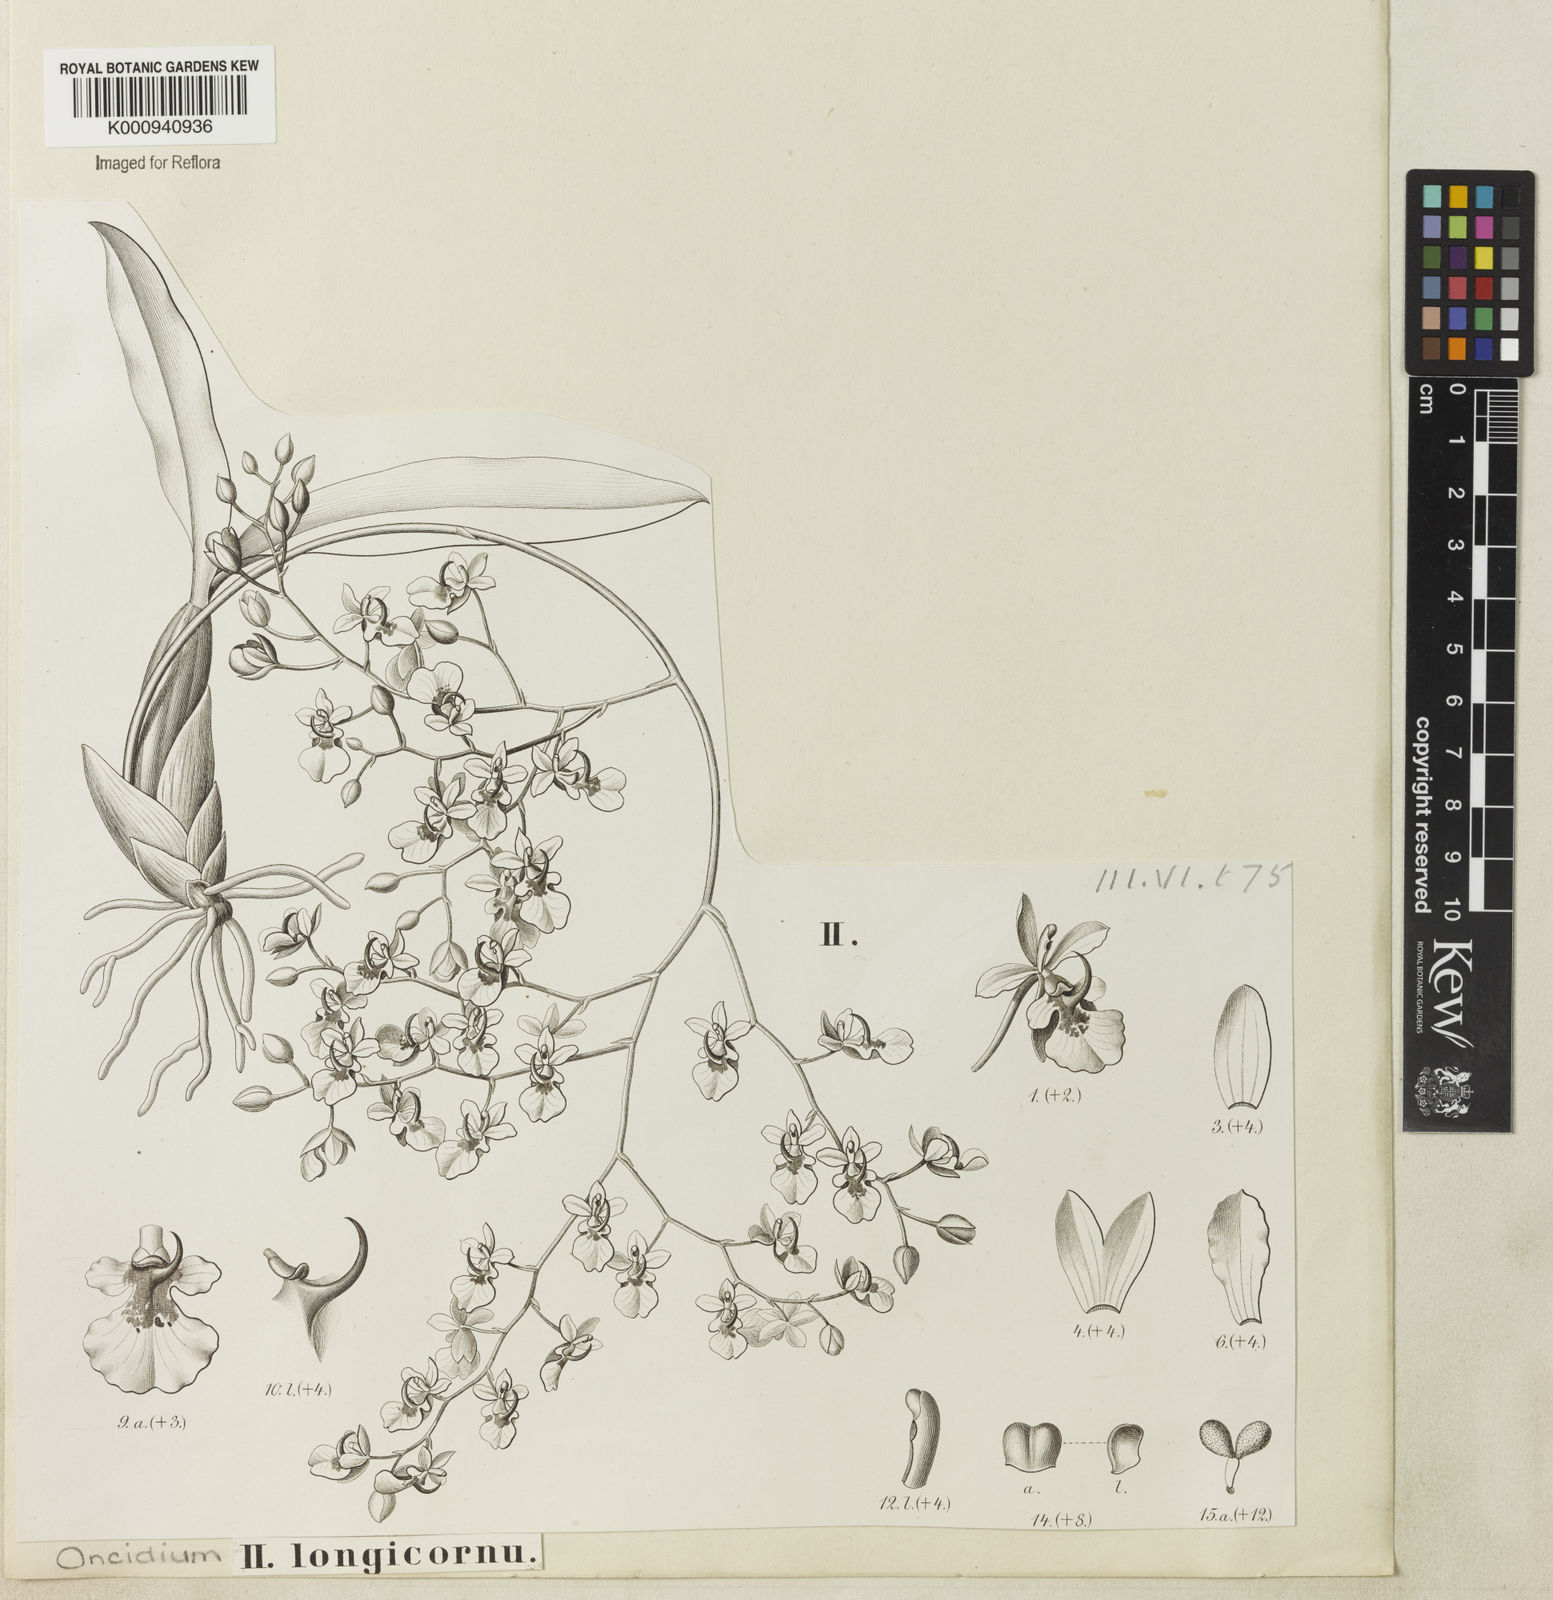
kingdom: Plantae
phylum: Tracheophyta
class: Liliopsida
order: Asparagales
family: Orchidaceae
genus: Gomesa
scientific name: Gomesa florida
